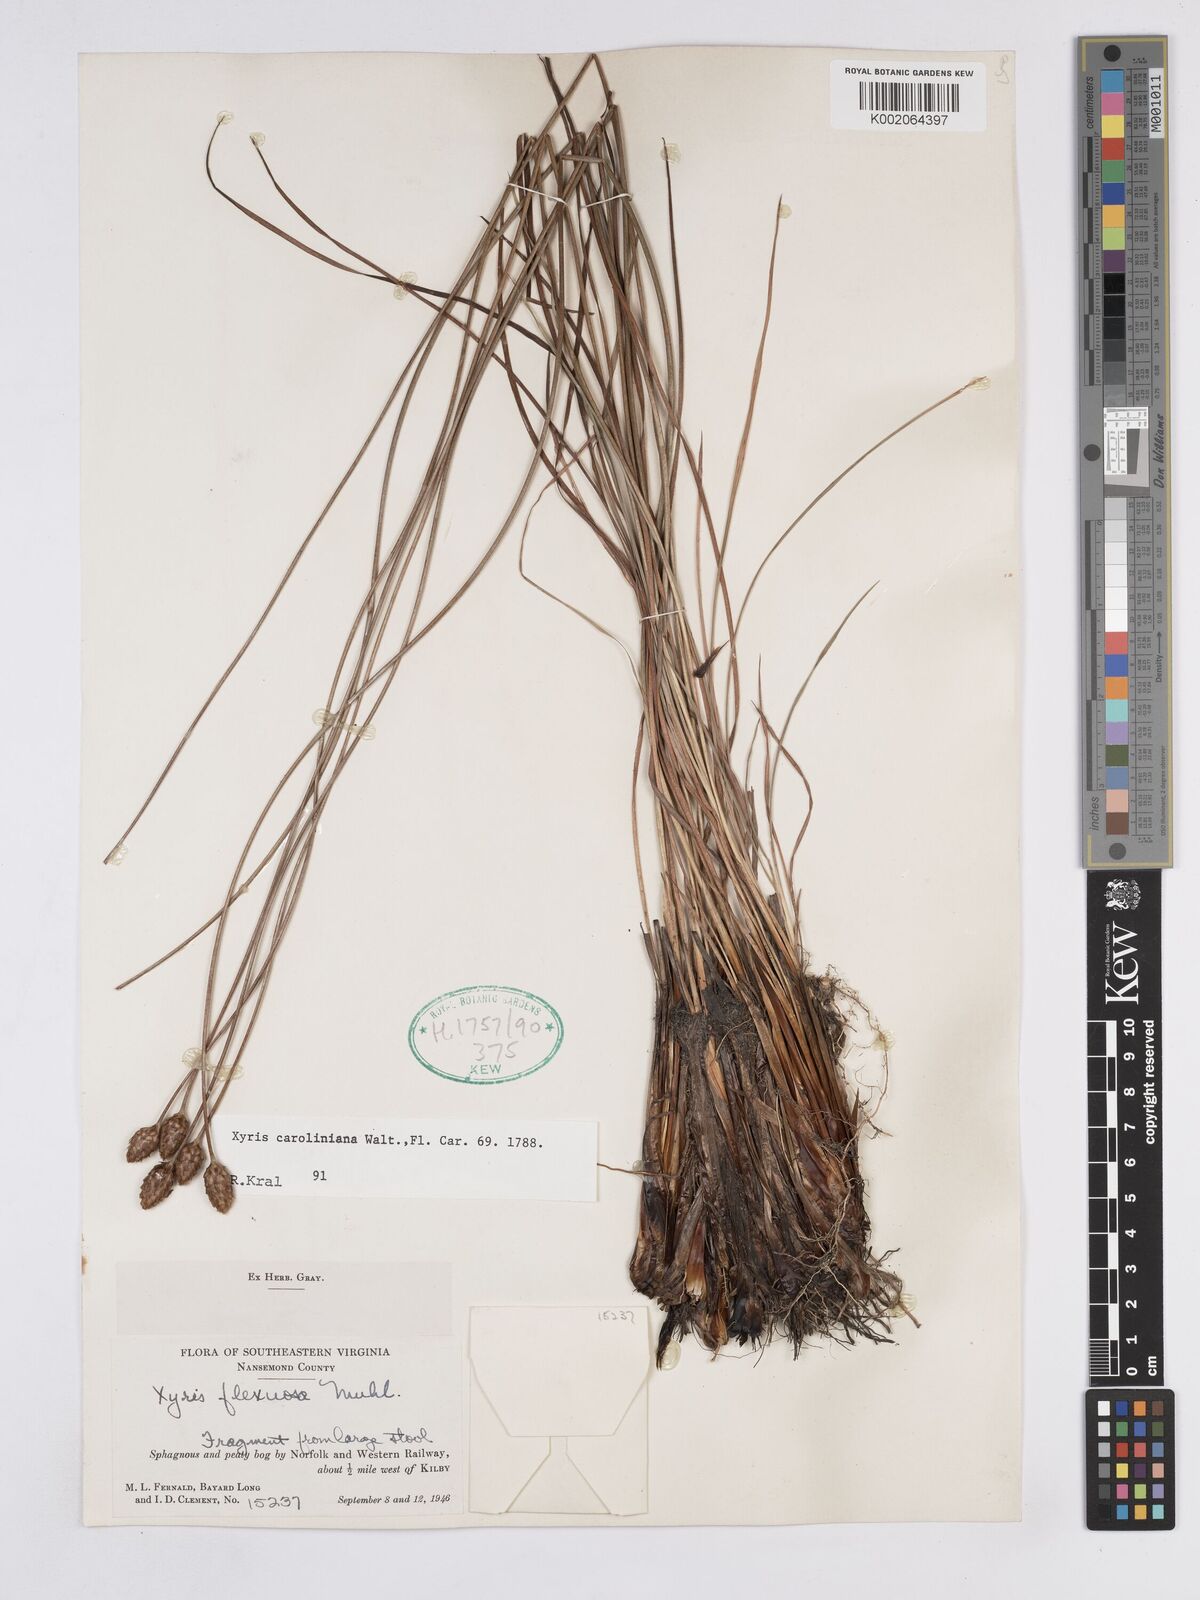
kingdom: Plantae
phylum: Tracheophyta
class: Liliopsida
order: Poales
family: Xyridaceae
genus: Xyris
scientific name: Xyris caroliniana
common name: Carolina yellow-eyed-grass
